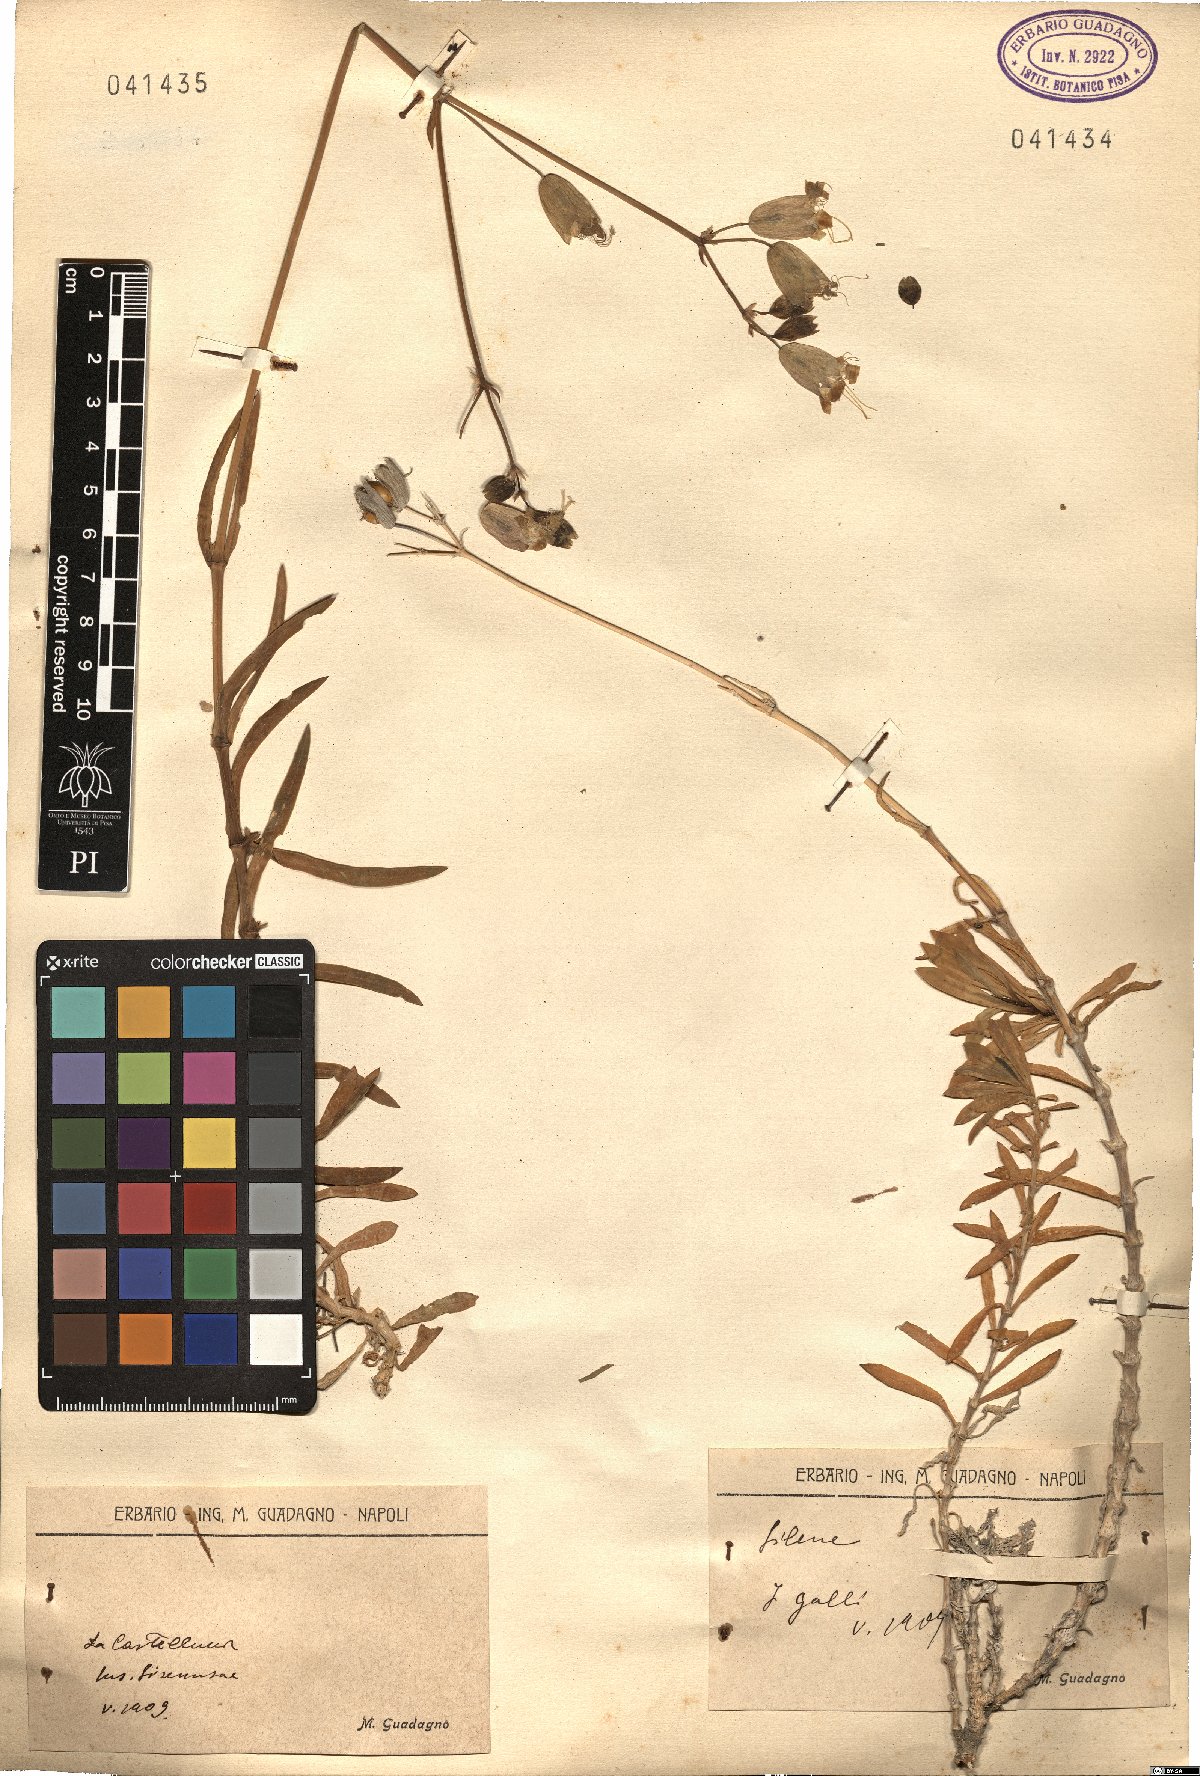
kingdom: Plantae
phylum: Tracheophyta
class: Magnoliopsida
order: Caryophyllales
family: Caryophyllaceae
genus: Silene
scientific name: Silene
